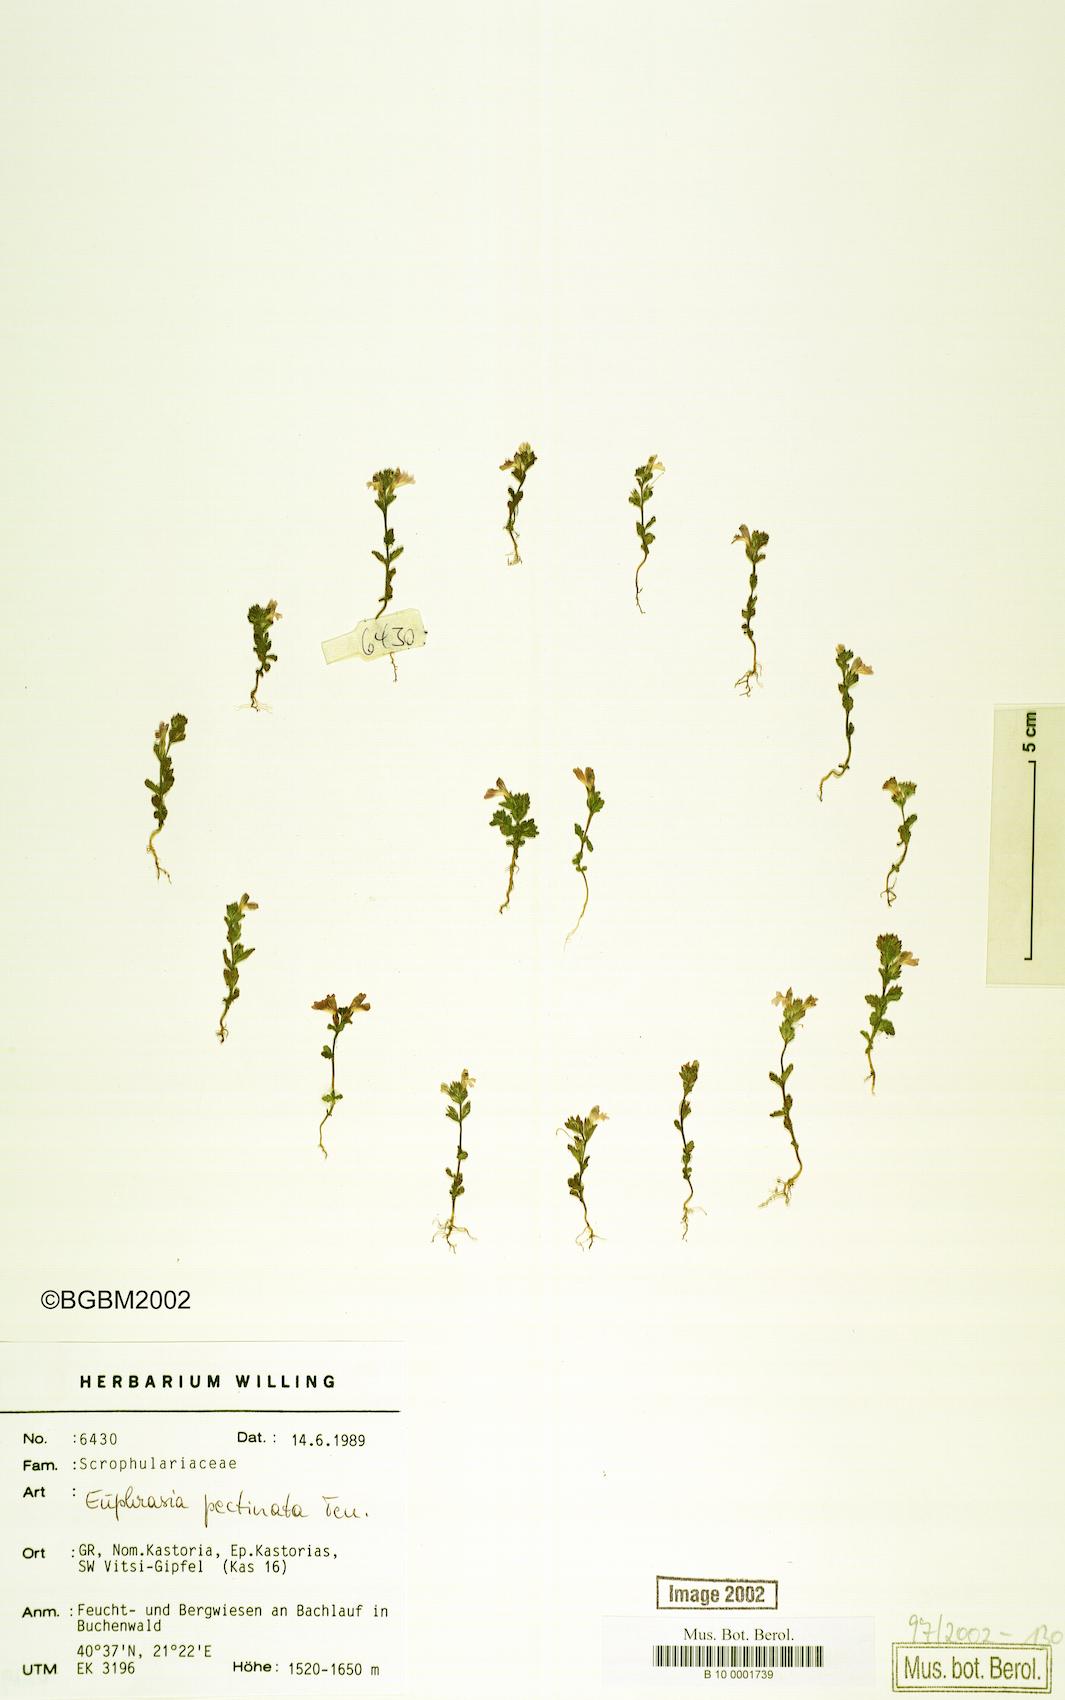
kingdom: Plantae
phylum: Tracheophyta
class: Magnoliopsida
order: Lamiales
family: Orobanchaceae
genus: Euphrasia
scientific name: Euphrasia pectinata
